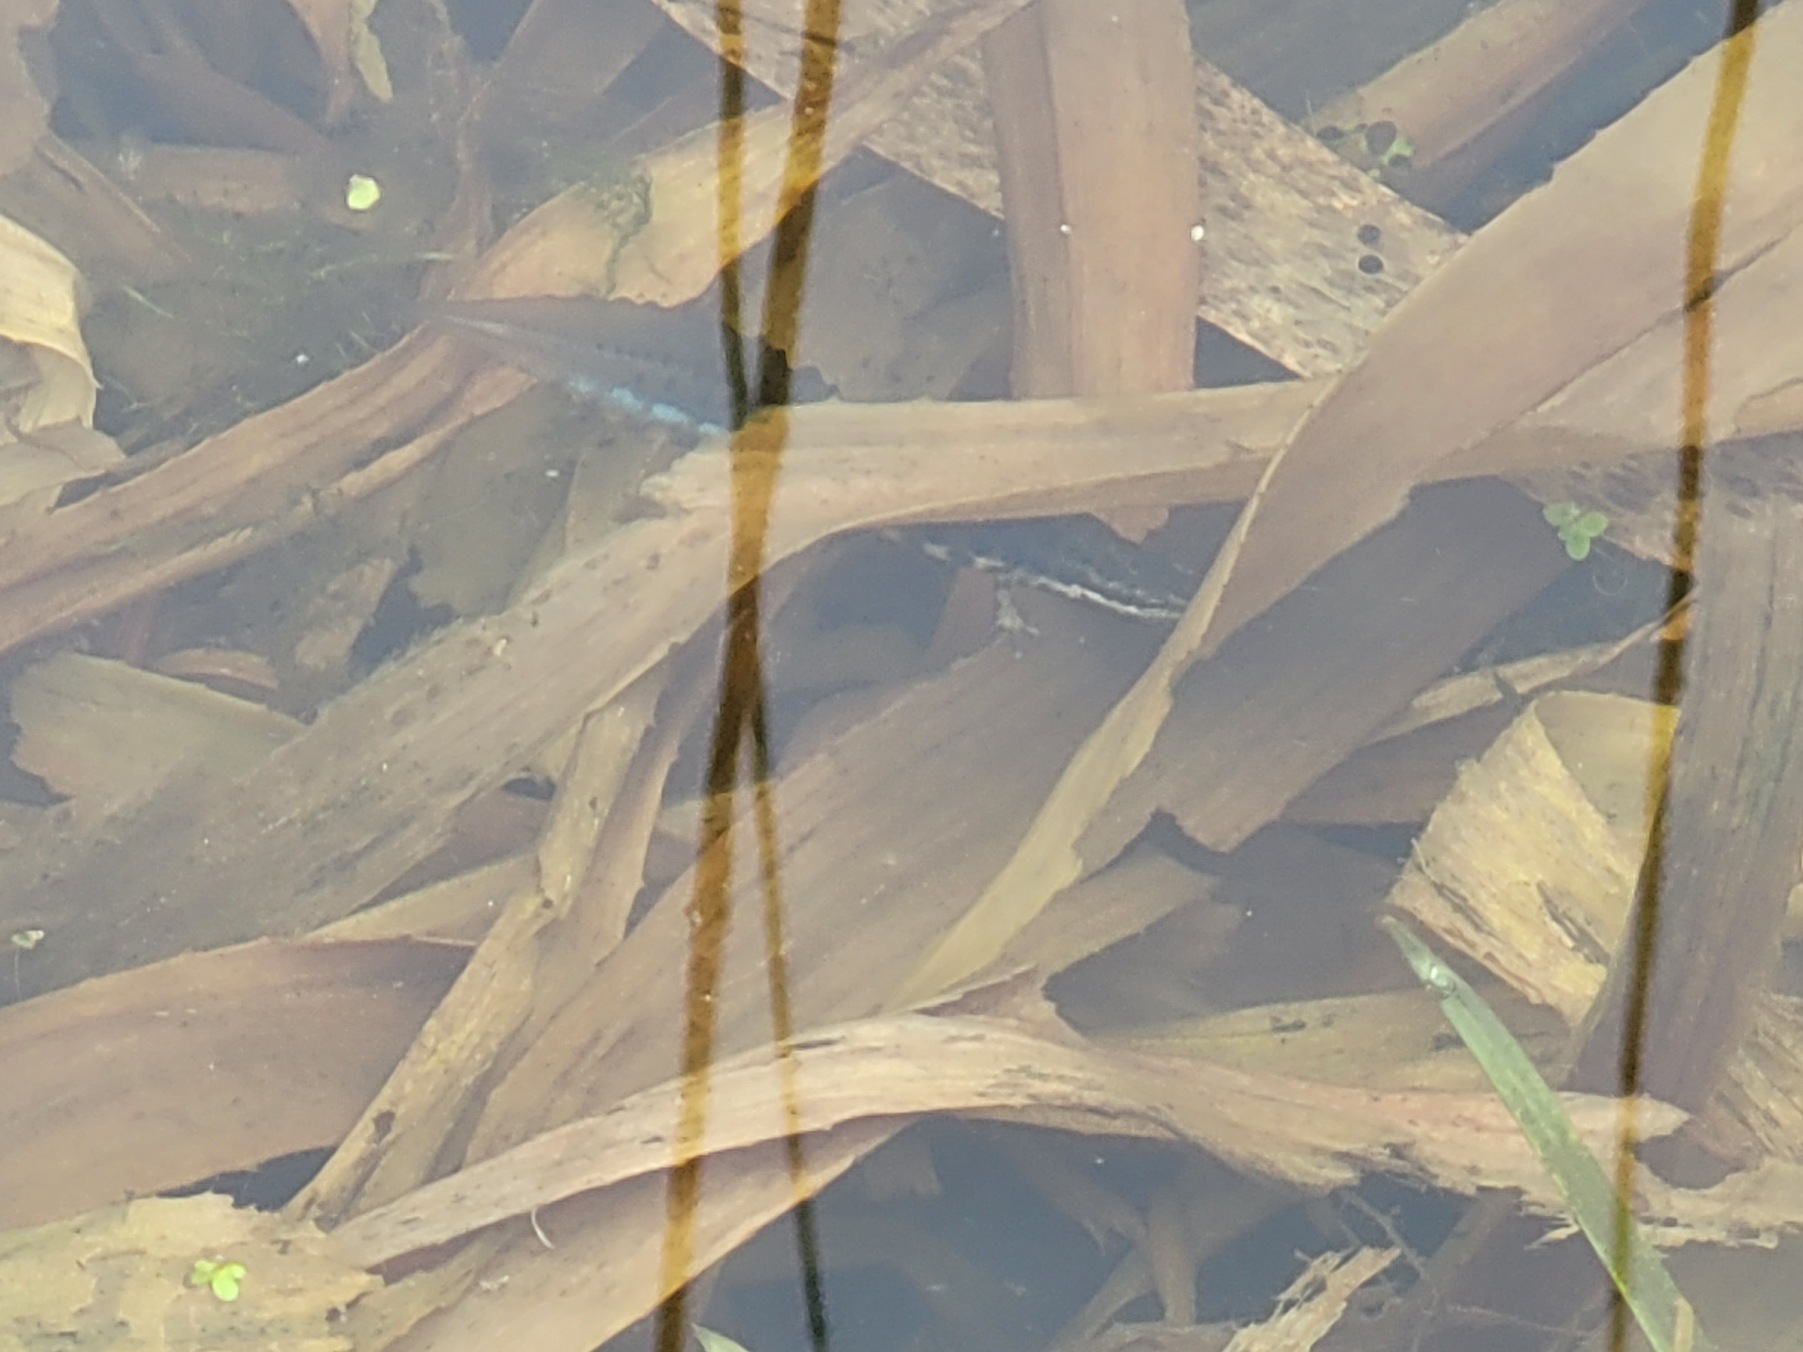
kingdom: Animalia
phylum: Chordata
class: Amphibia
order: Caudata
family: Salamandridae
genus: Lissotriton
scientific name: Lissotriton vulgaris
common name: Lille vandsalamander
